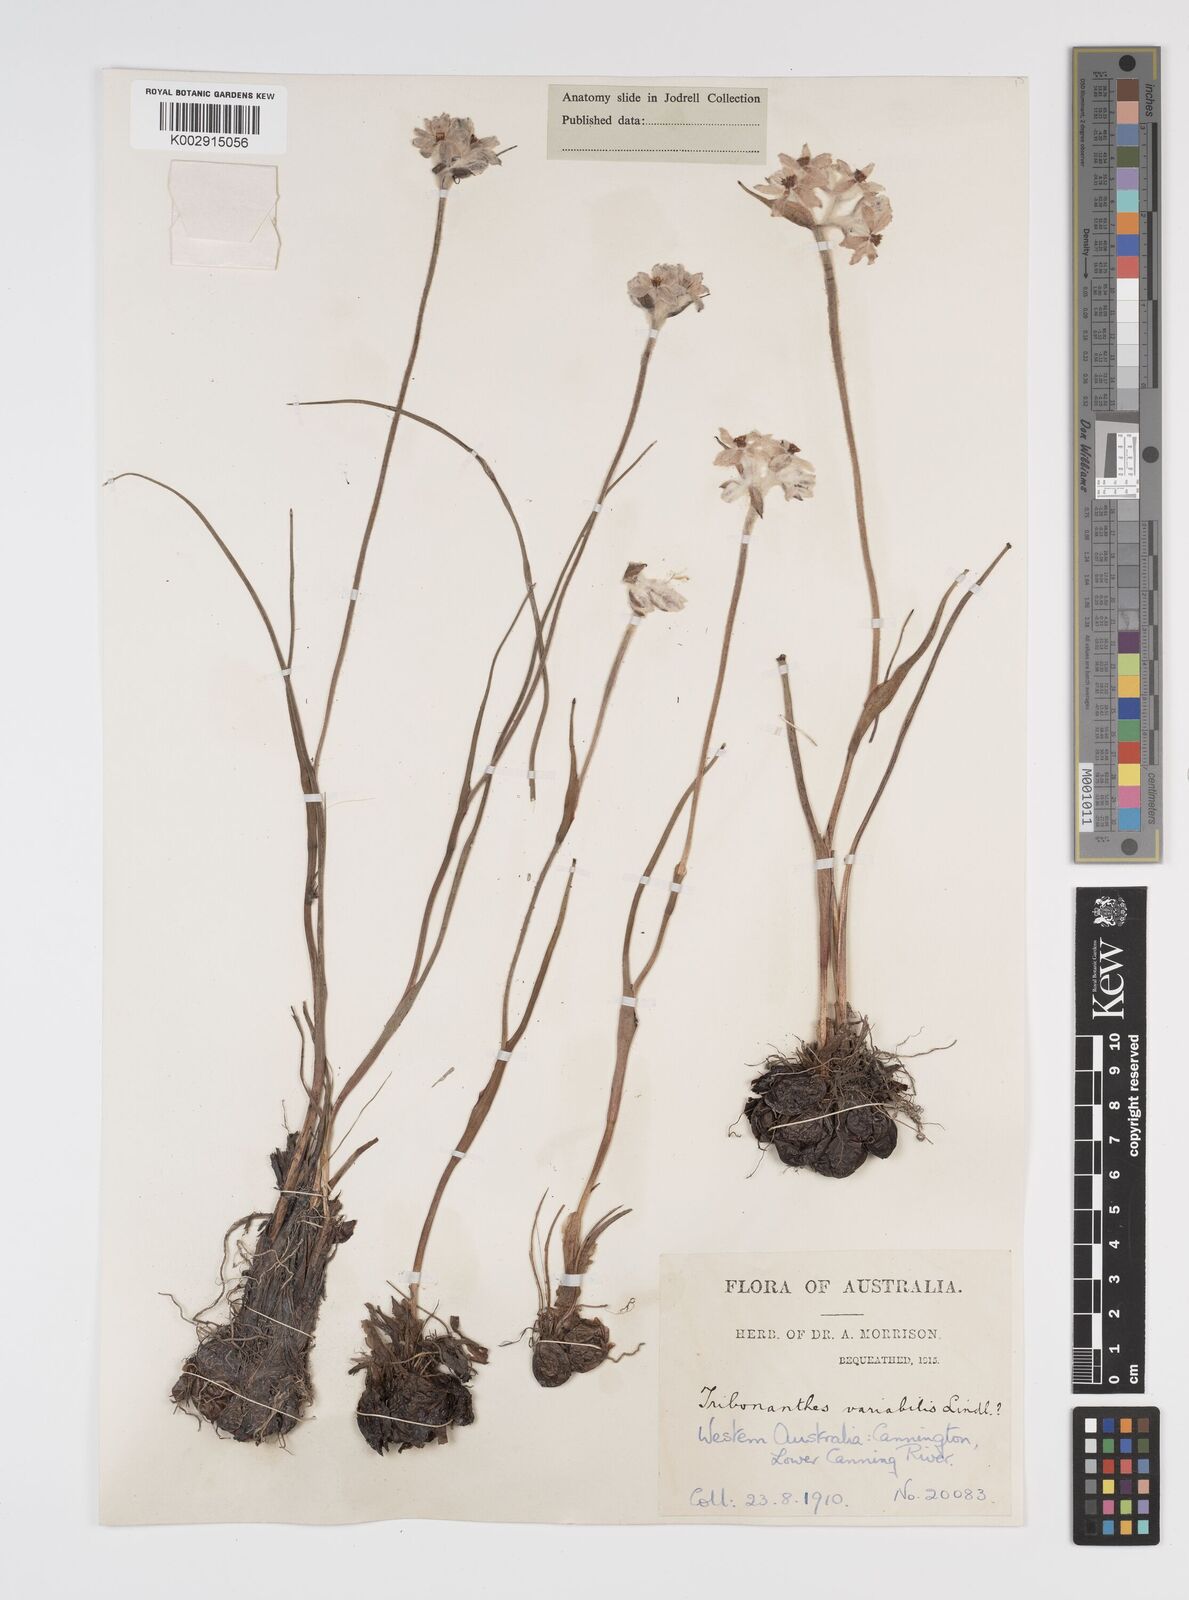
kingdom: Plantae
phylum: Tracheophyta
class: Liliopsida
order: Commelinales
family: Haemodoraceae
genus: Tribonanthes
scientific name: Tribonanthes australis
